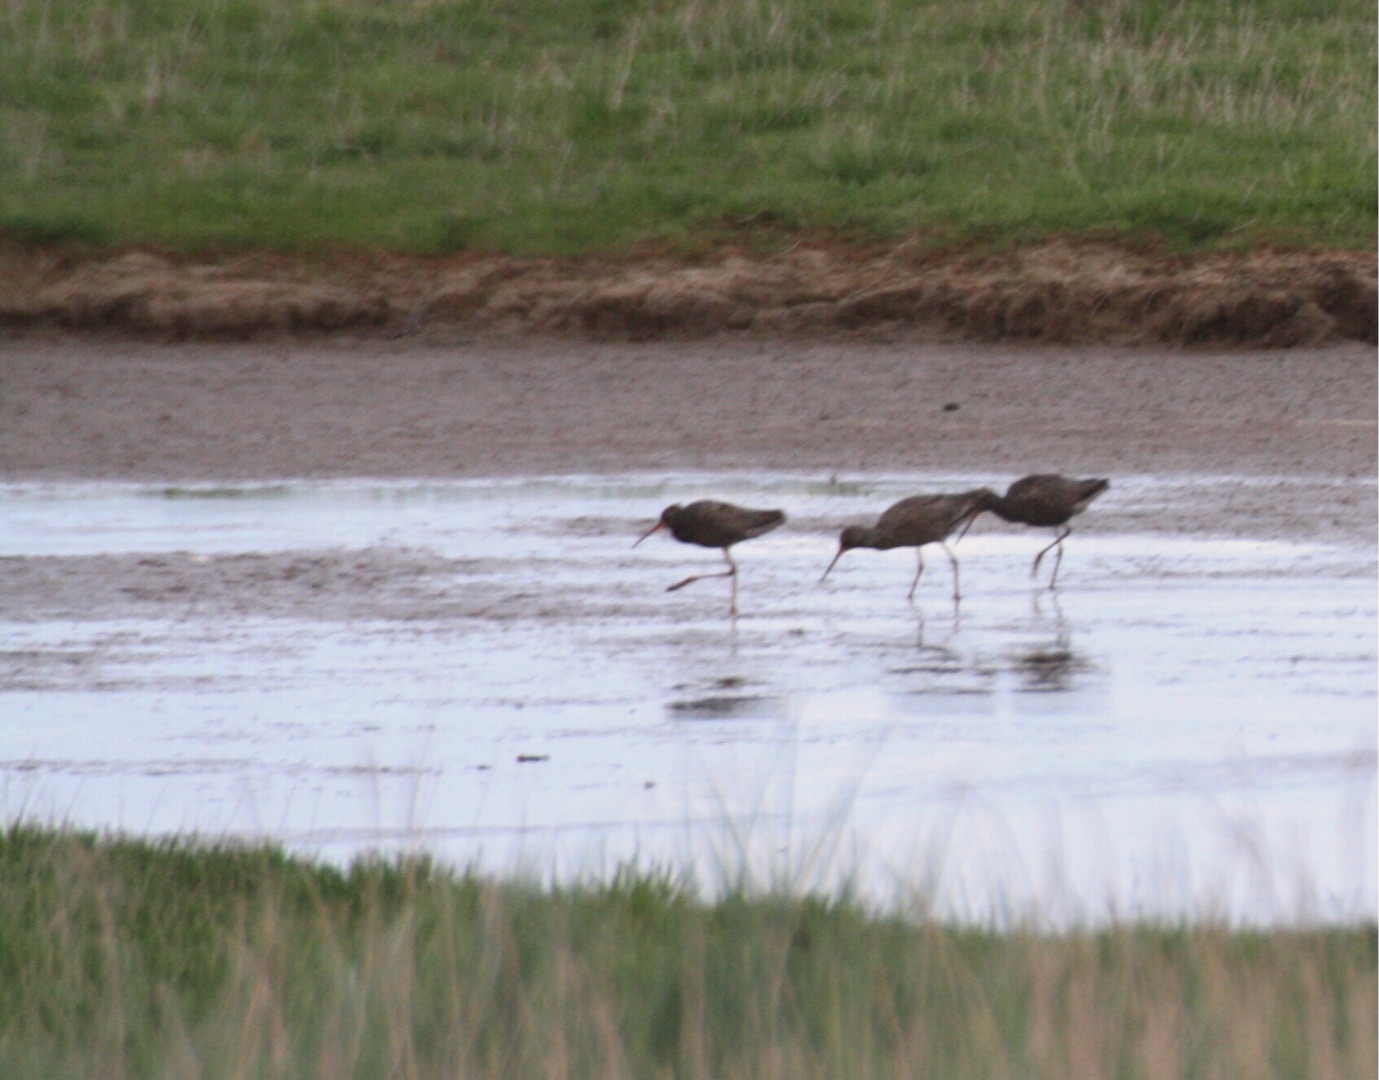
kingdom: Animalia
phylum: Chordata
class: Aves
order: Charadriiformes
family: Scolopacidae
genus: Tringa
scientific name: Tringa erythropus
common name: Sortklire
